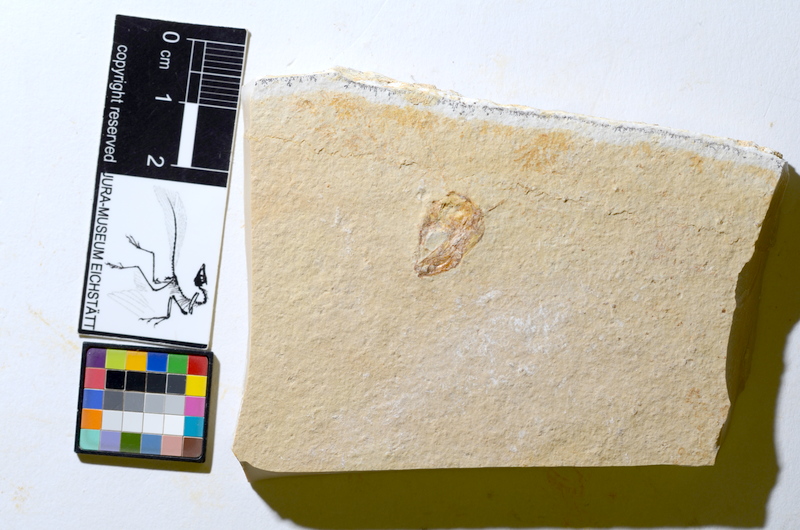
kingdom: Animalia
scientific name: Animalia
